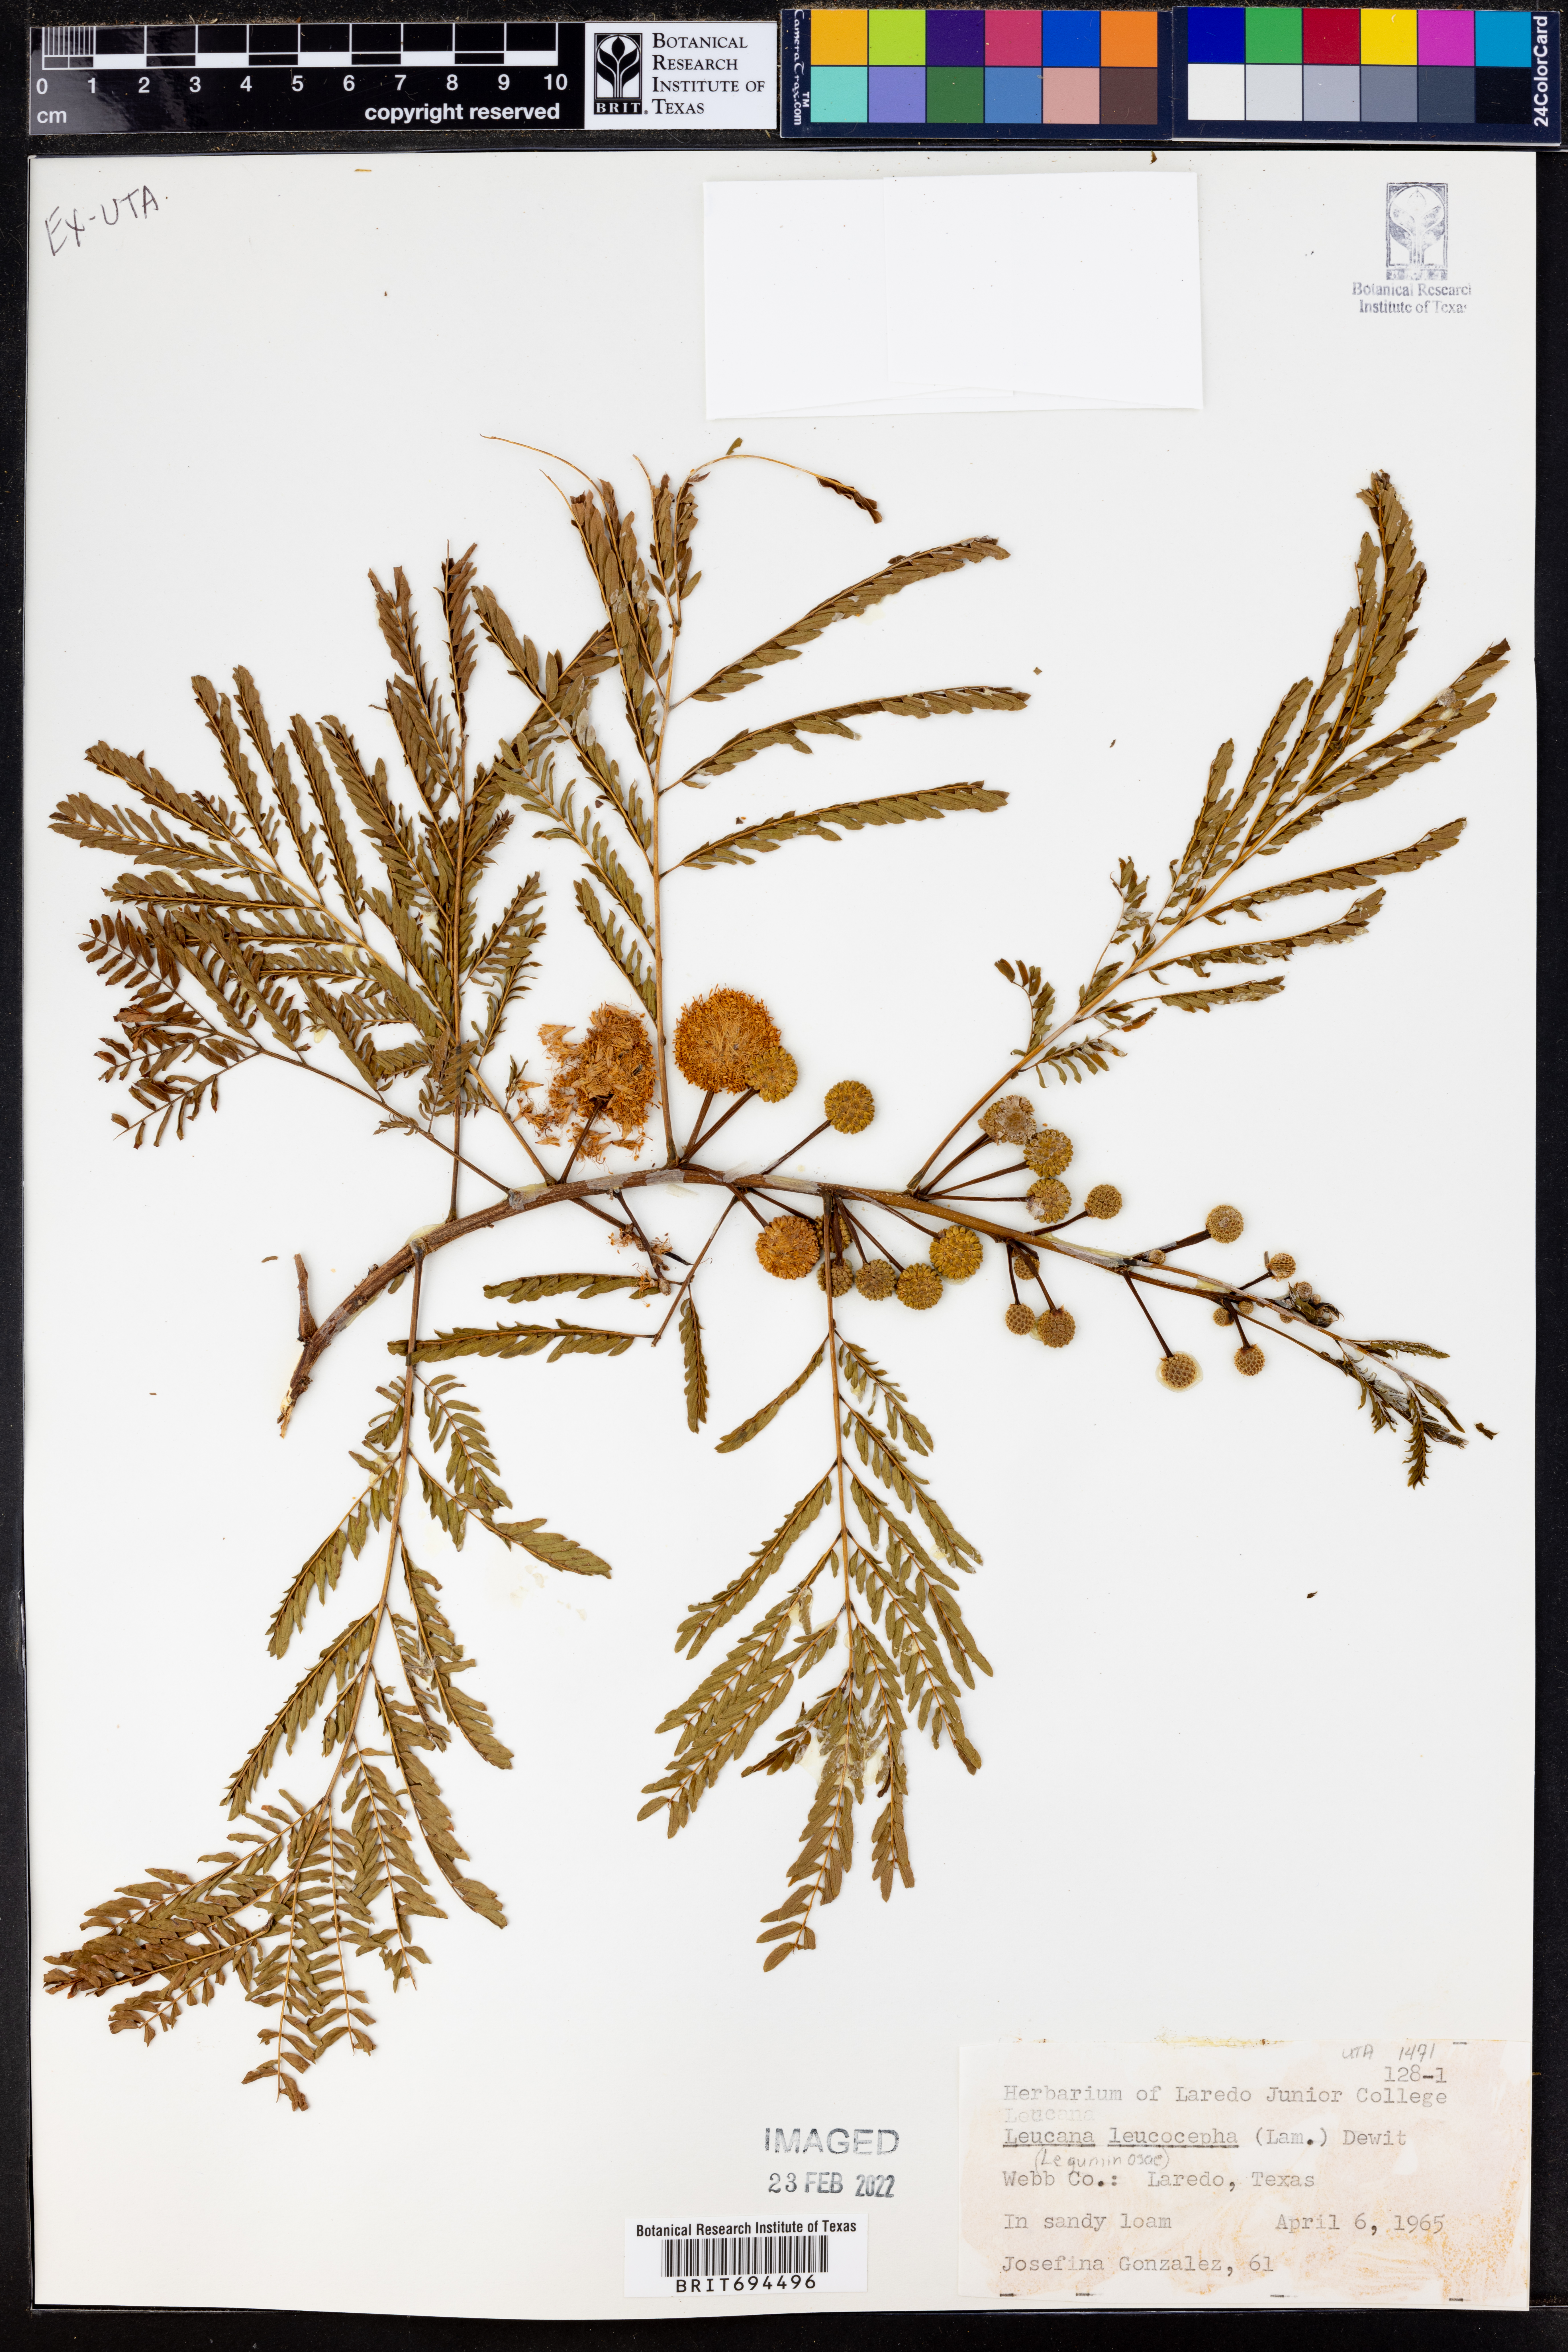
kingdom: Plantae
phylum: Tracheophyta
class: Magnoliopsida
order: Fabales
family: Fabaceae
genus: Leucaena
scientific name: Leucaena leucocephala
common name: White leadtree
